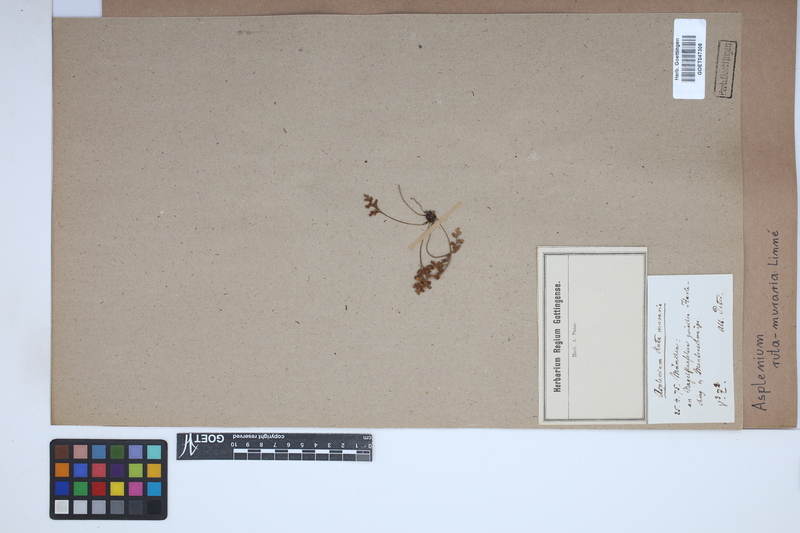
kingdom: Plantae
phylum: Tracheophyta
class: Polypodiopsida
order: Polypodiales
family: Aspleniaceae
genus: Asplenium
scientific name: Asplenium ruta-muraria
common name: Wall-rue
